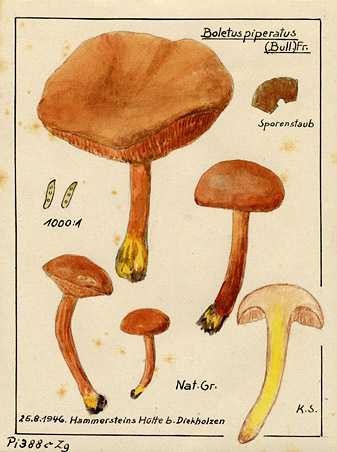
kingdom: Fungi
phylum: Basidiomycota
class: Agaricomycetes
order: Boletales
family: Boletaceae
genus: Chalciporus
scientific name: Chalciporus piperatus
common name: Peppery bolete
